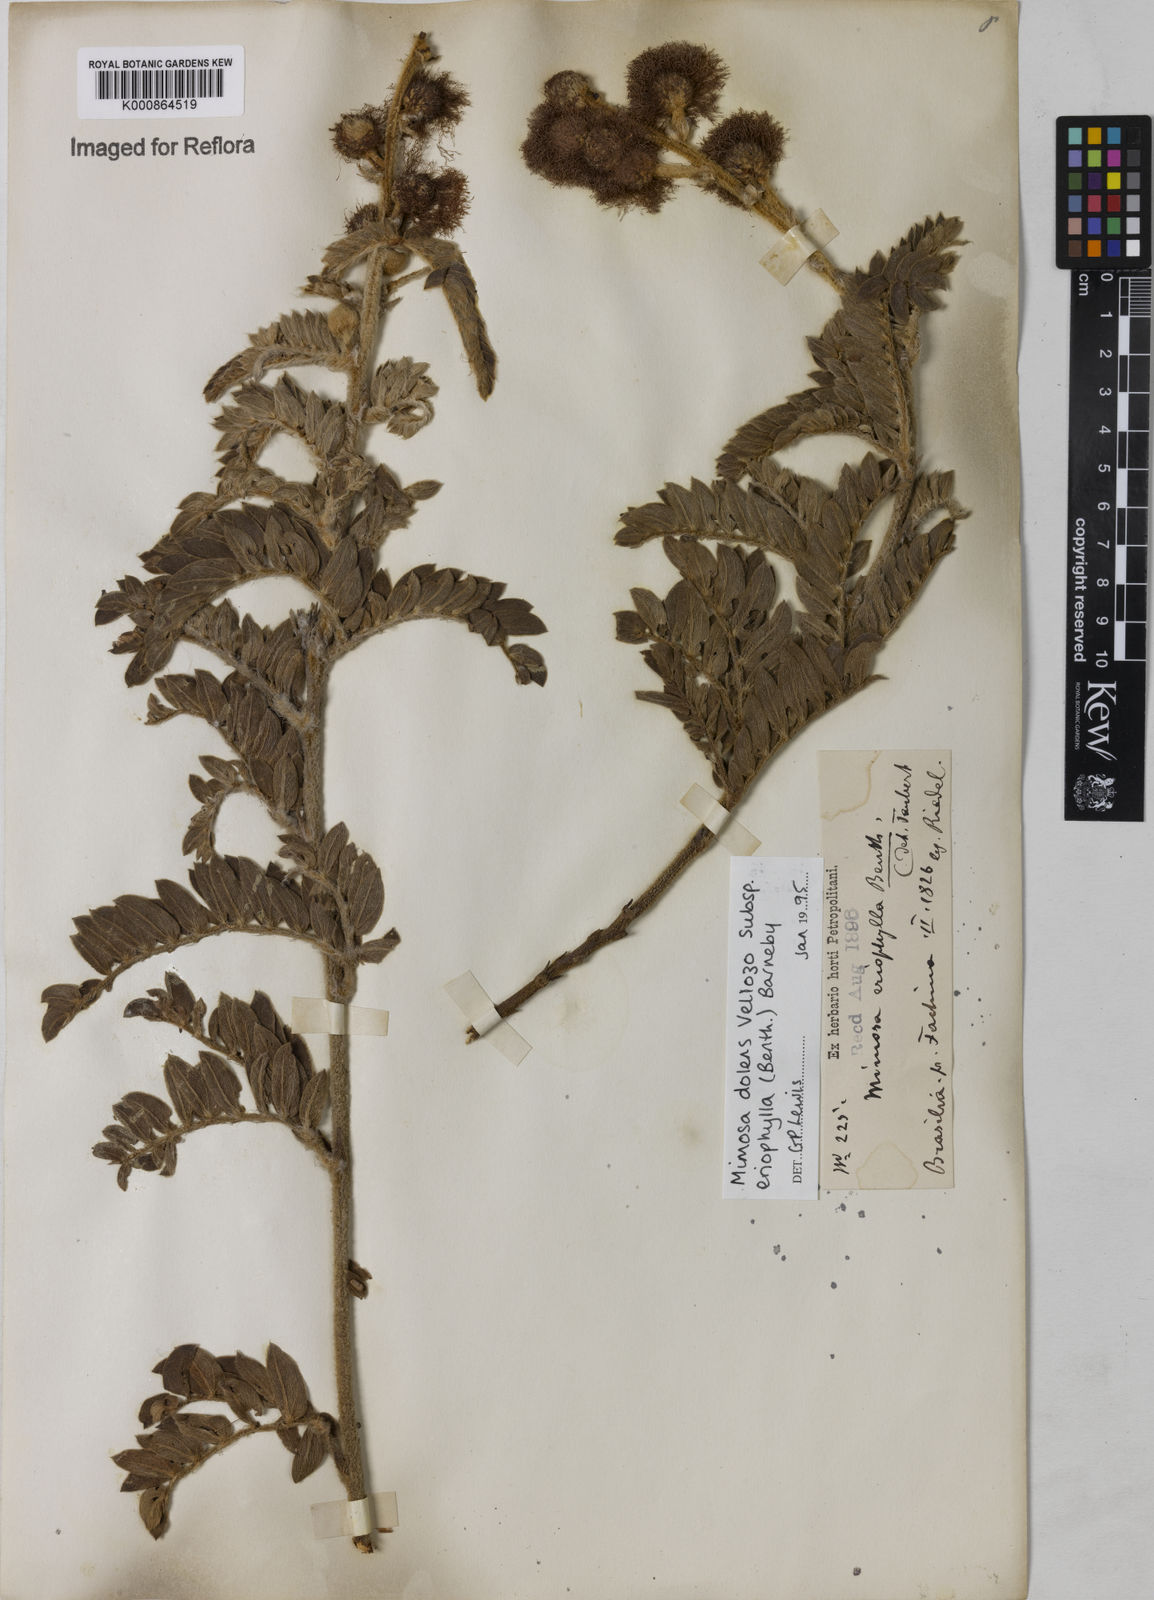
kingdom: Plantae
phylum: Tracheophyta
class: Magnoliopsida
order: Fabales
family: Fabaceae
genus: Mimosa
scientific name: Mimosa dolens
